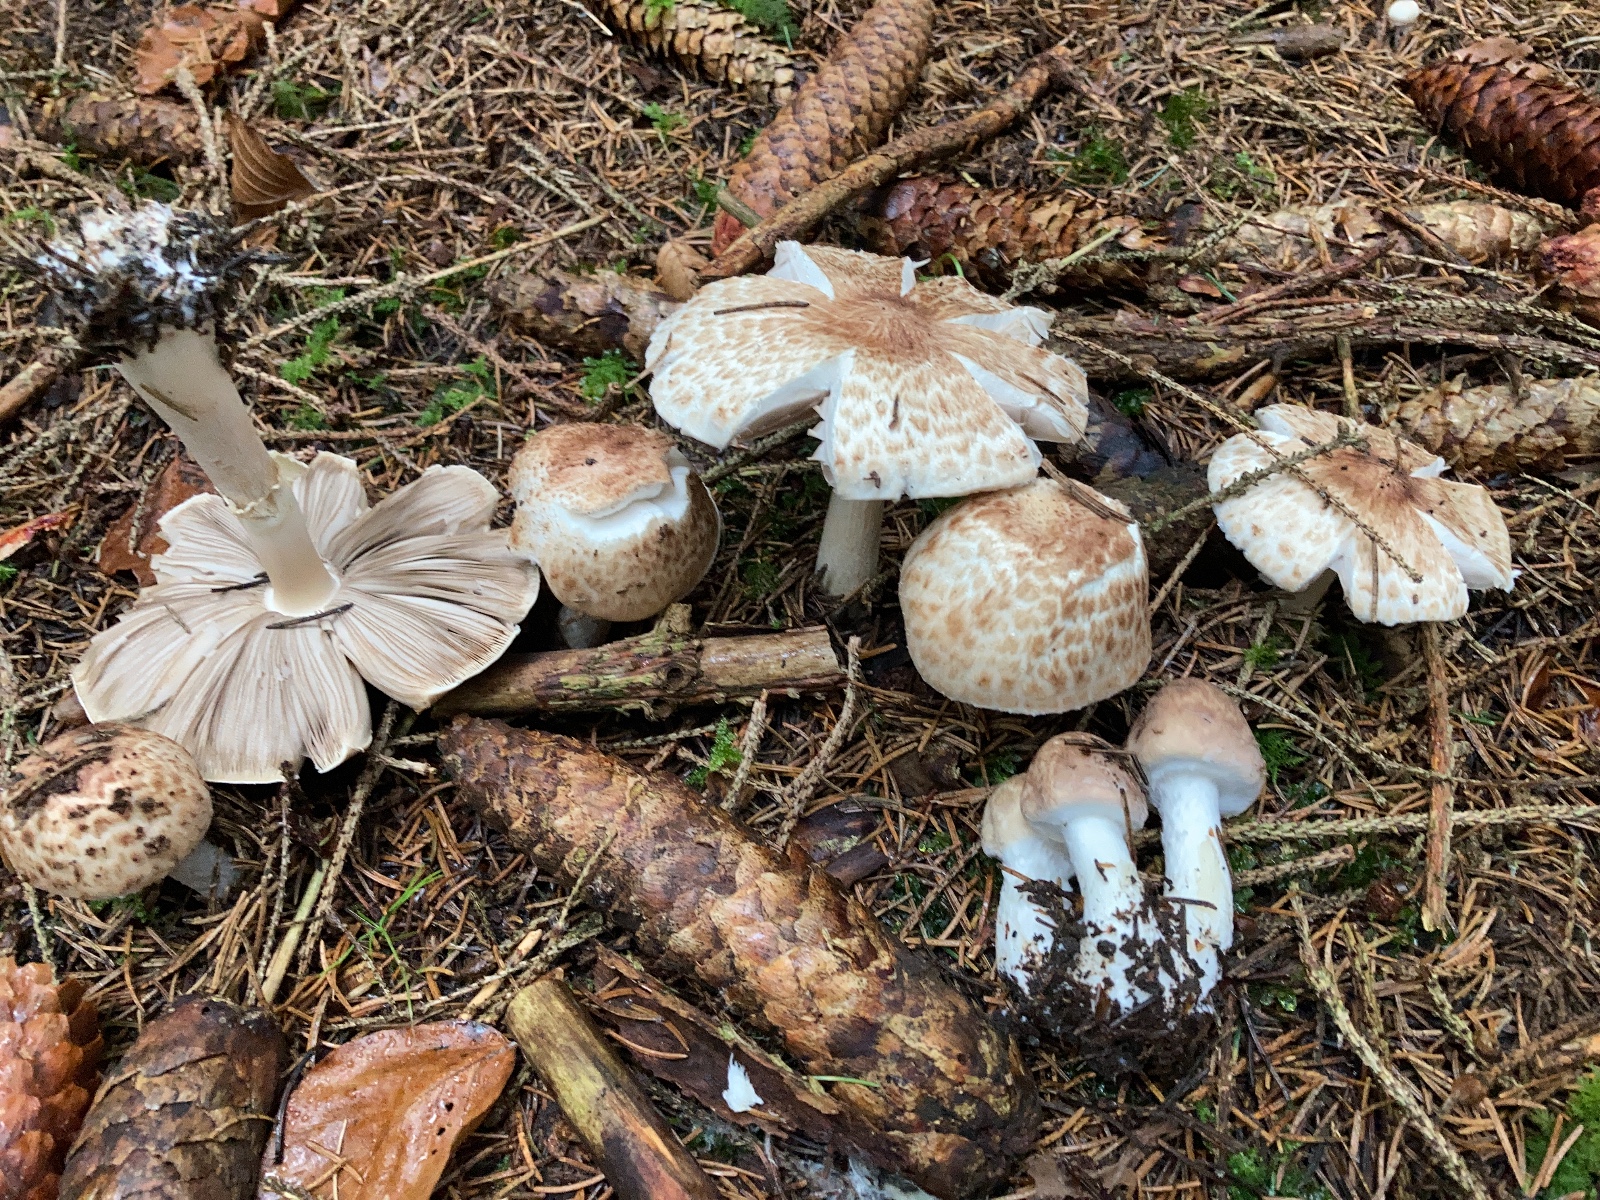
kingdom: Fungi
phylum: Basidiomycota
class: Agaricomycetes
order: Agaricales
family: Agaricaceae
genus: Agaricus
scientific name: Agaricus impudicus
